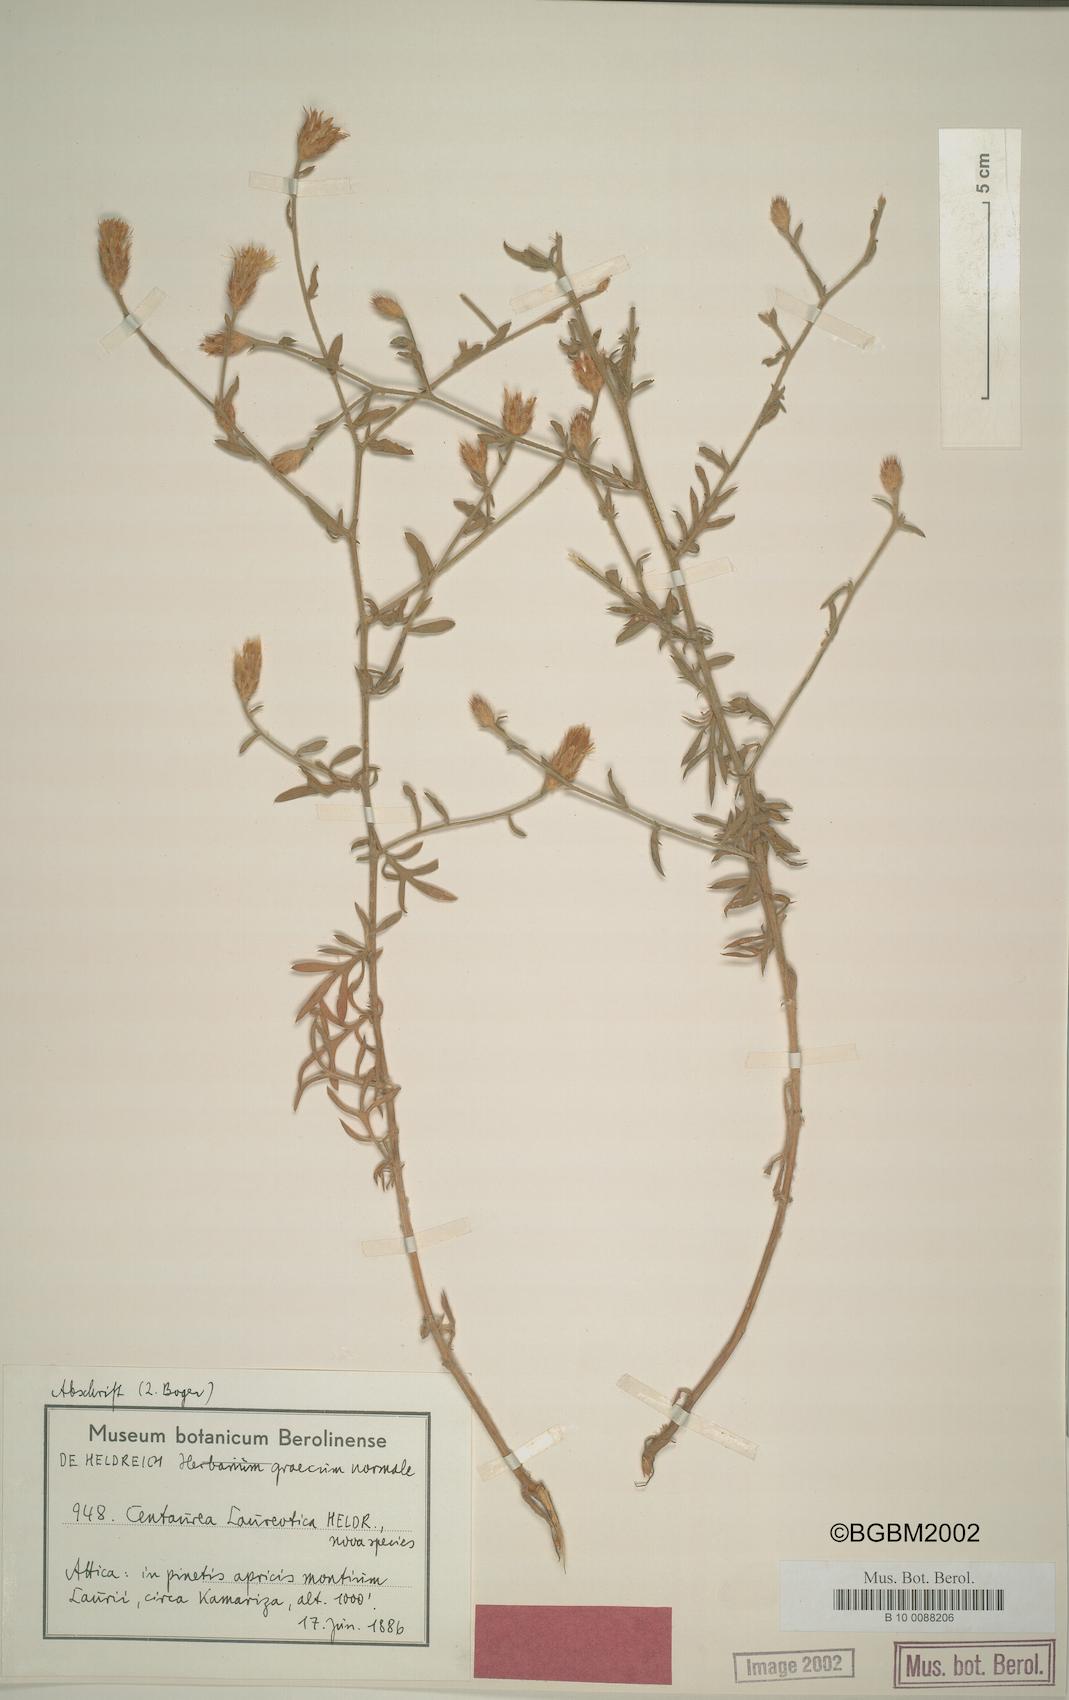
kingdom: Plantae
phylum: Tracheophyta
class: Magnoliopsida
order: Asterales
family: Asteraceae
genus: Centaurea
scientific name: Centaurea laureotica
